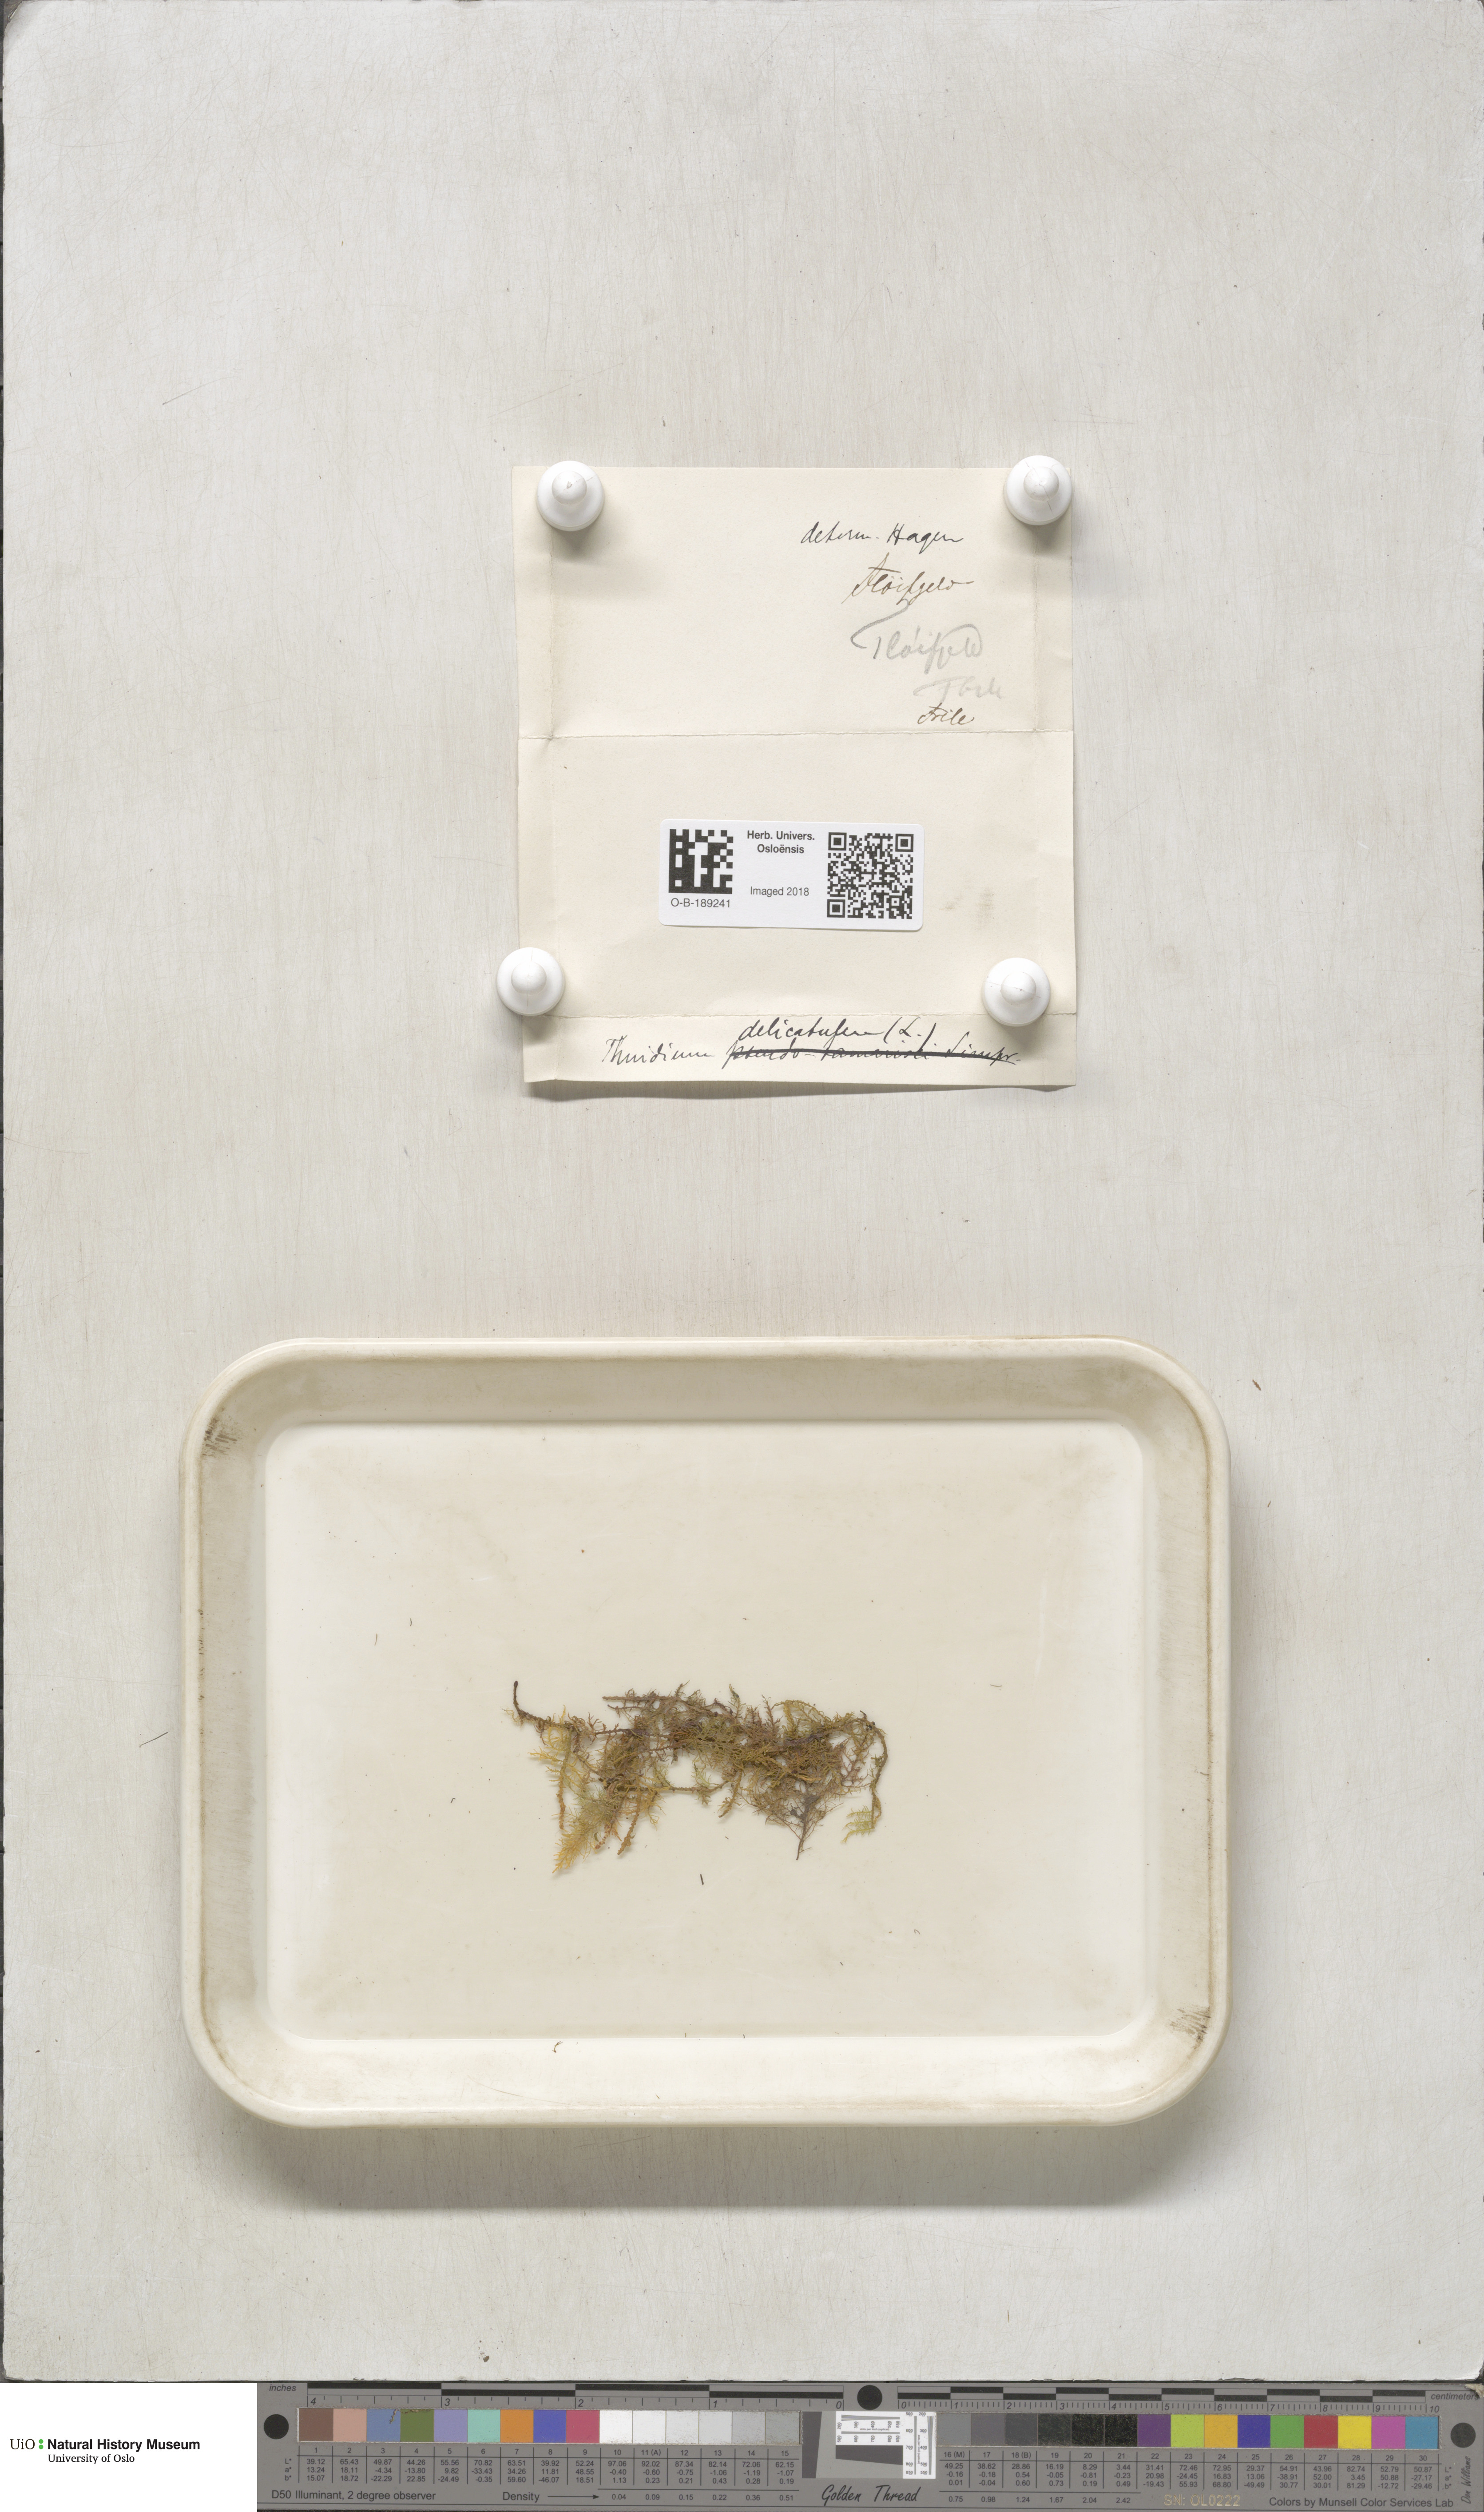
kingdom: Plantae
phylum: Bryophyta
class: Bryopsida
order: Hypnales
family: Thuidiaceae
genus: Thuidium
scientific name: Thuidium delicatulum
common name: Delicate fern moss
